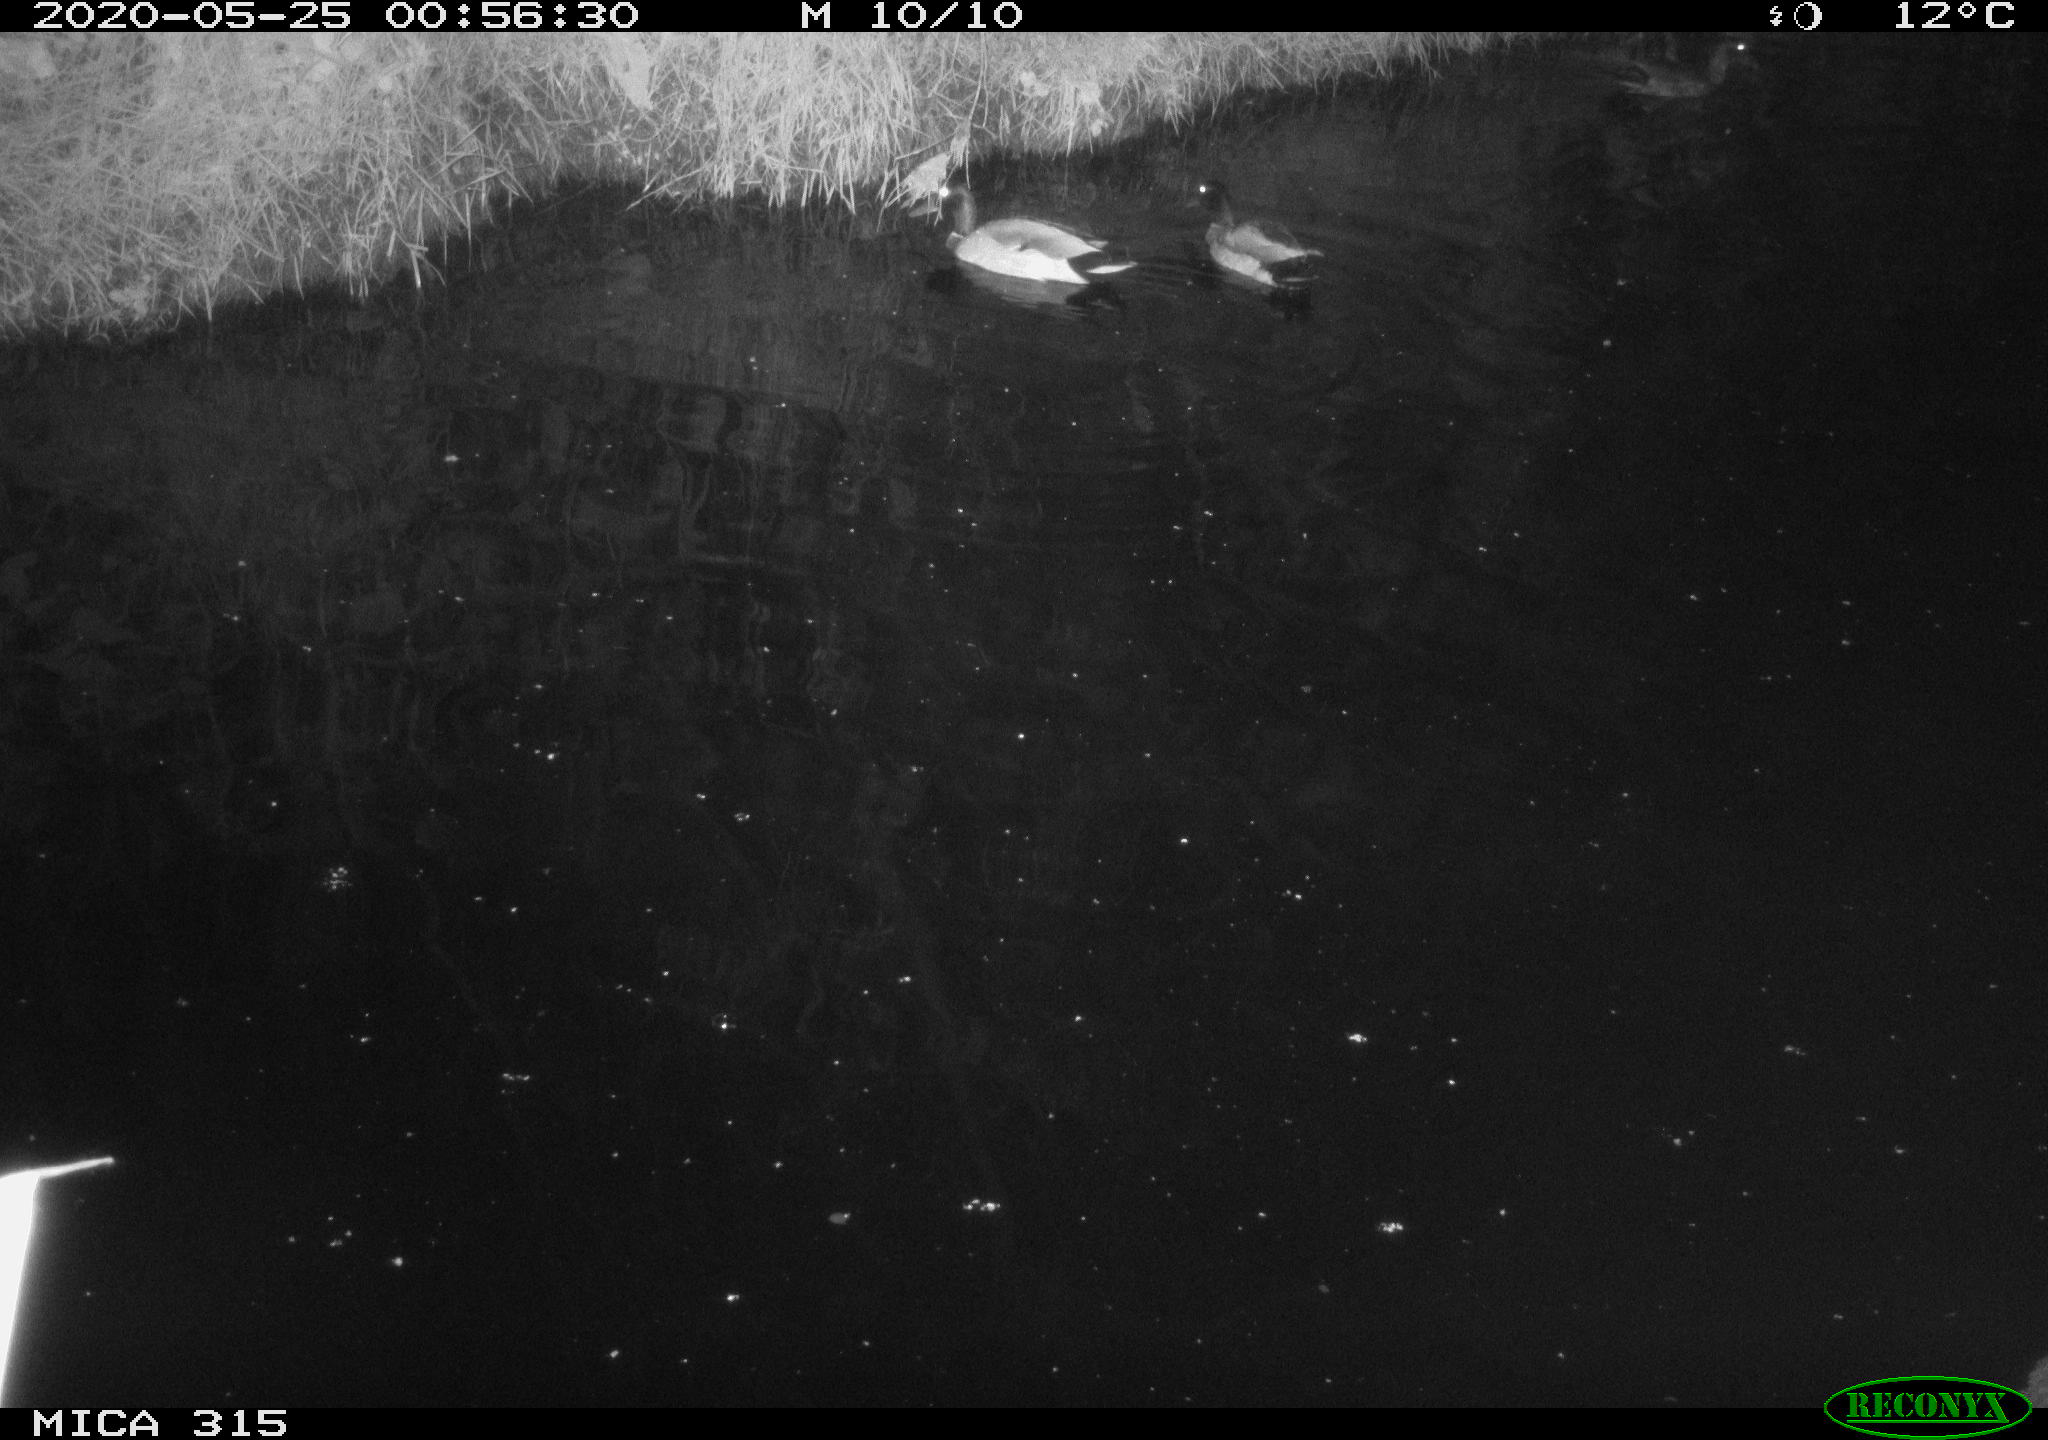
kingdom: Animalia
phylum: Chordata
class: Aves
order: Anseriformes
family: Anatidae
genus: Anas
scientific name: Anas platyrhynchos
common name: Mallard
